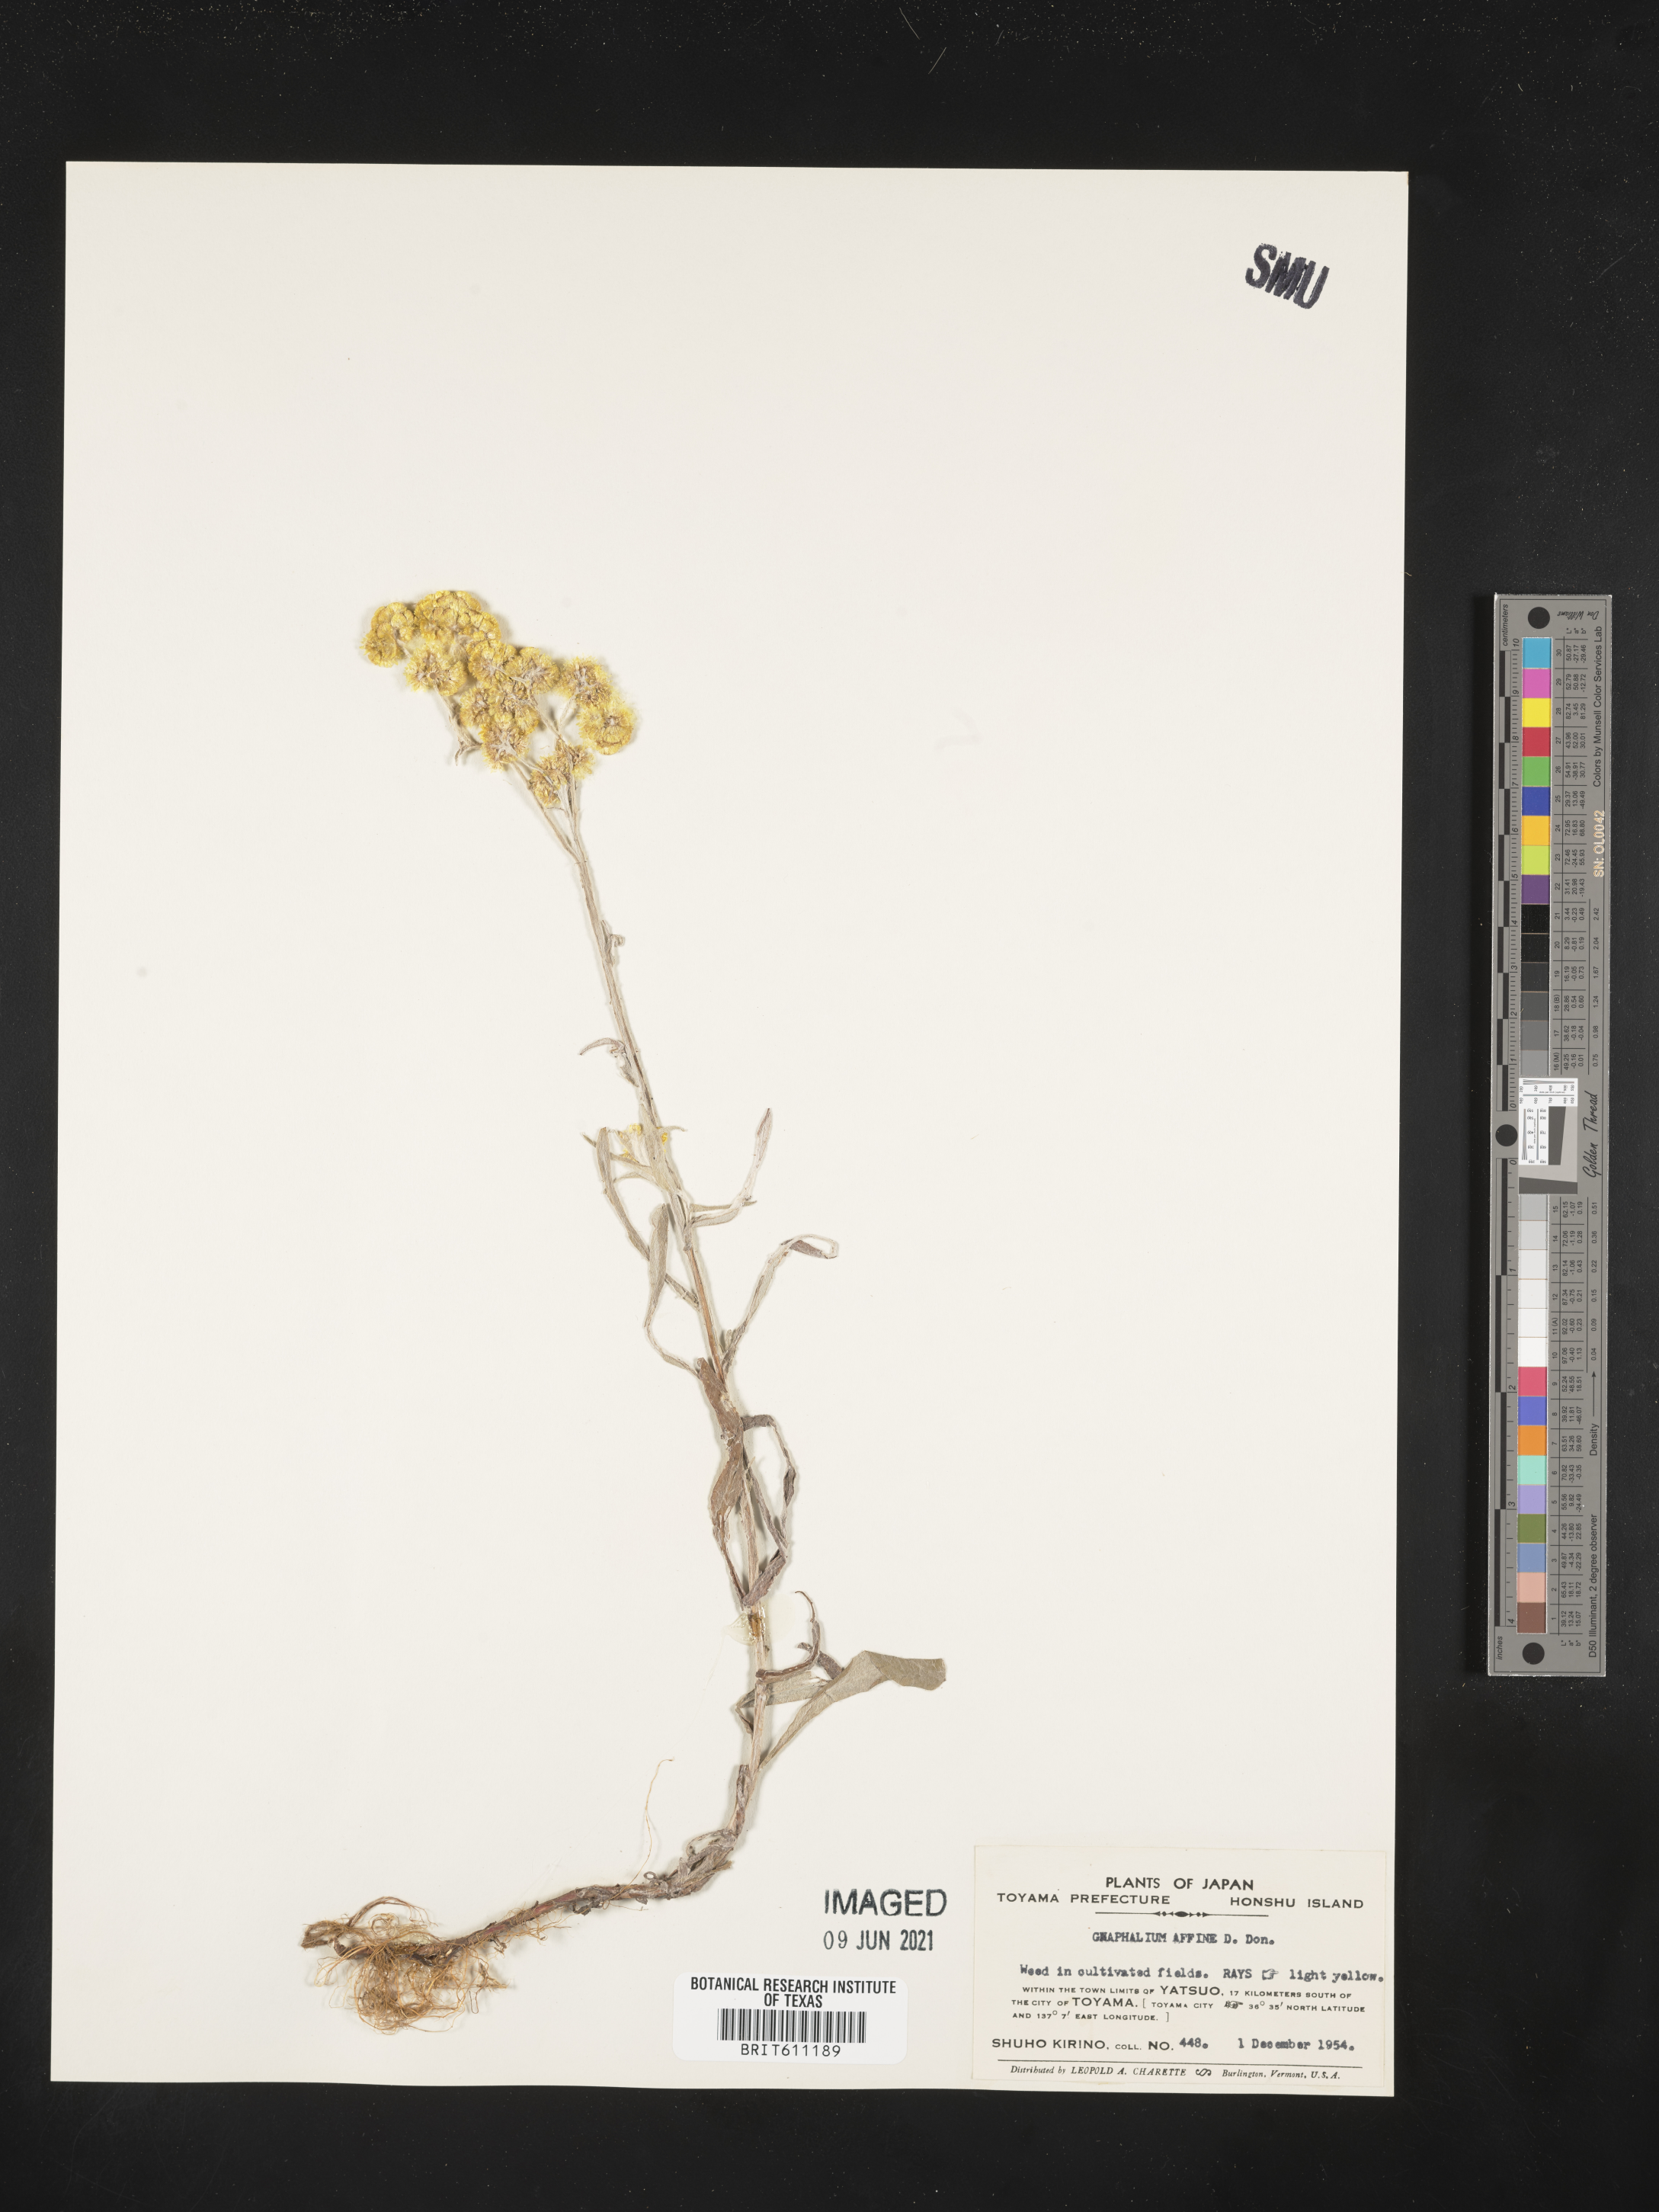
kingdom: Plantae
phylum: Tracheophyta
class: Magnoliopsida
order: Asterales
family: Asteraceae
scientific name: Asteraceae
